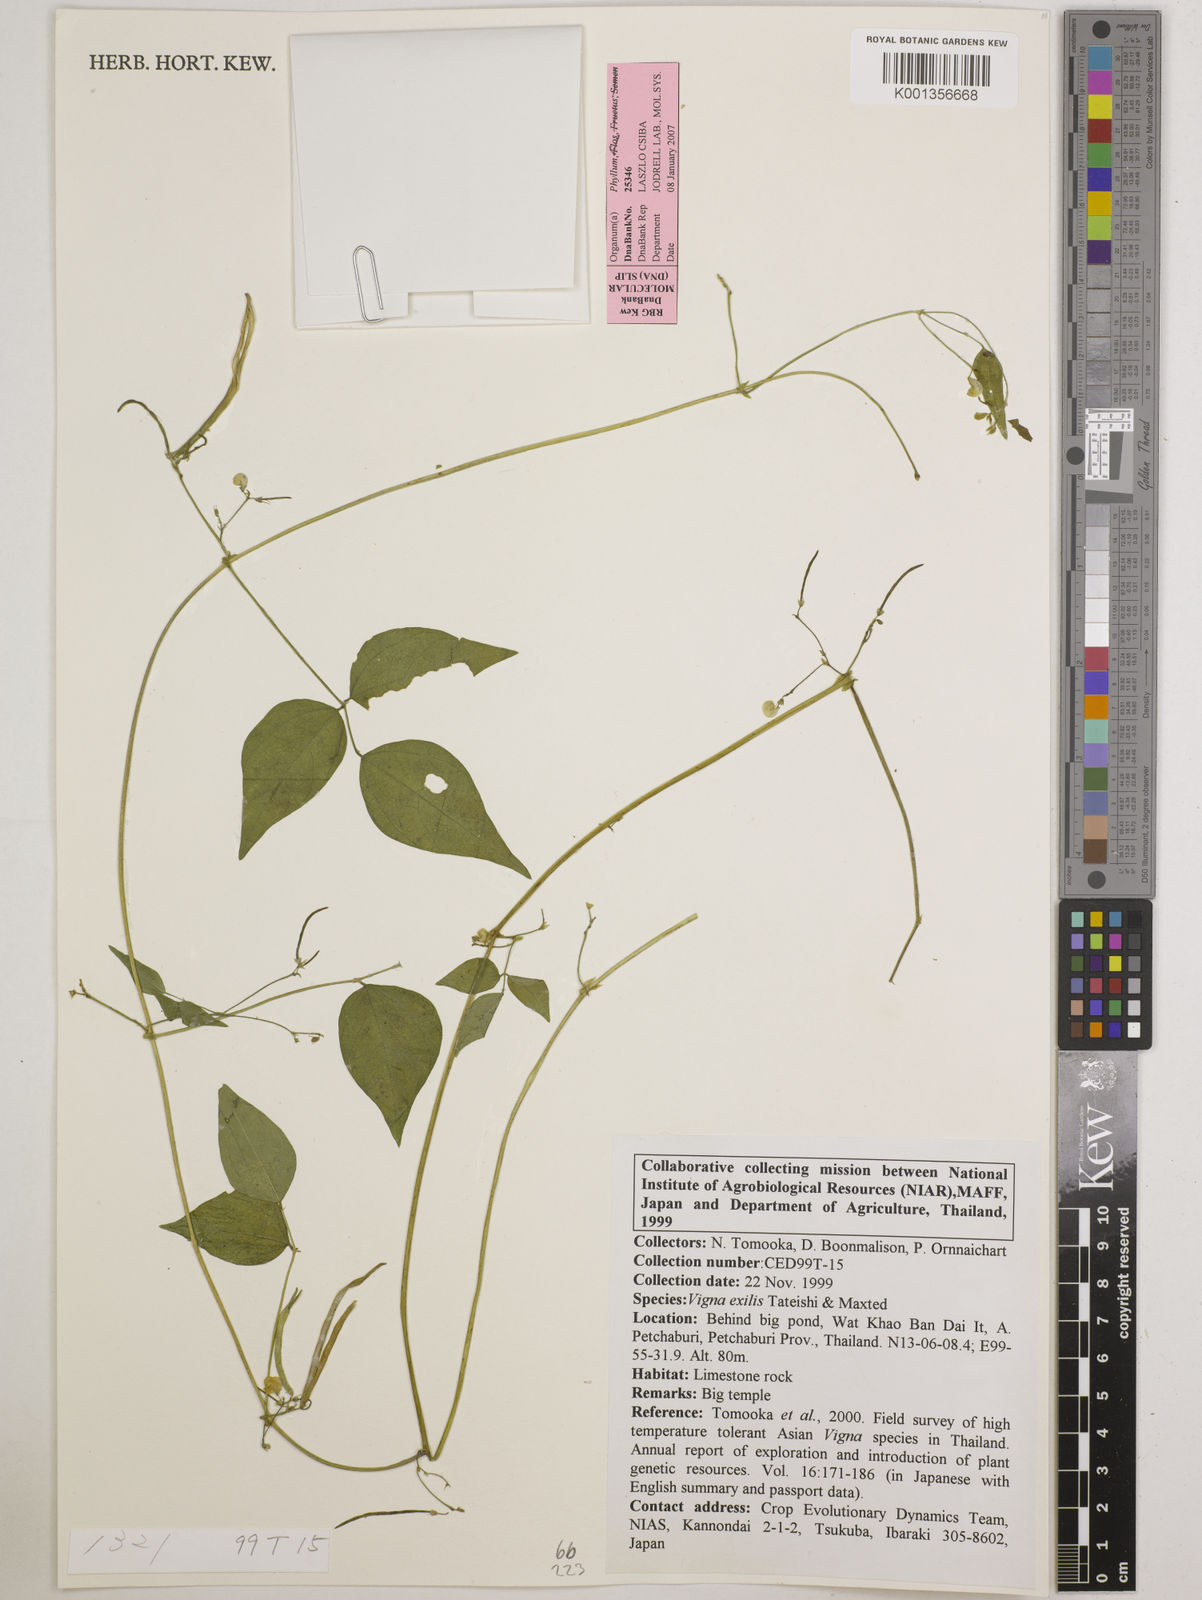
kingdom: Plantae
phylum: Tracheophyta
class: Magnoliopsida
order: Fabales
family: Fabaceae
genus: Vigna
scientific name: Vigna
